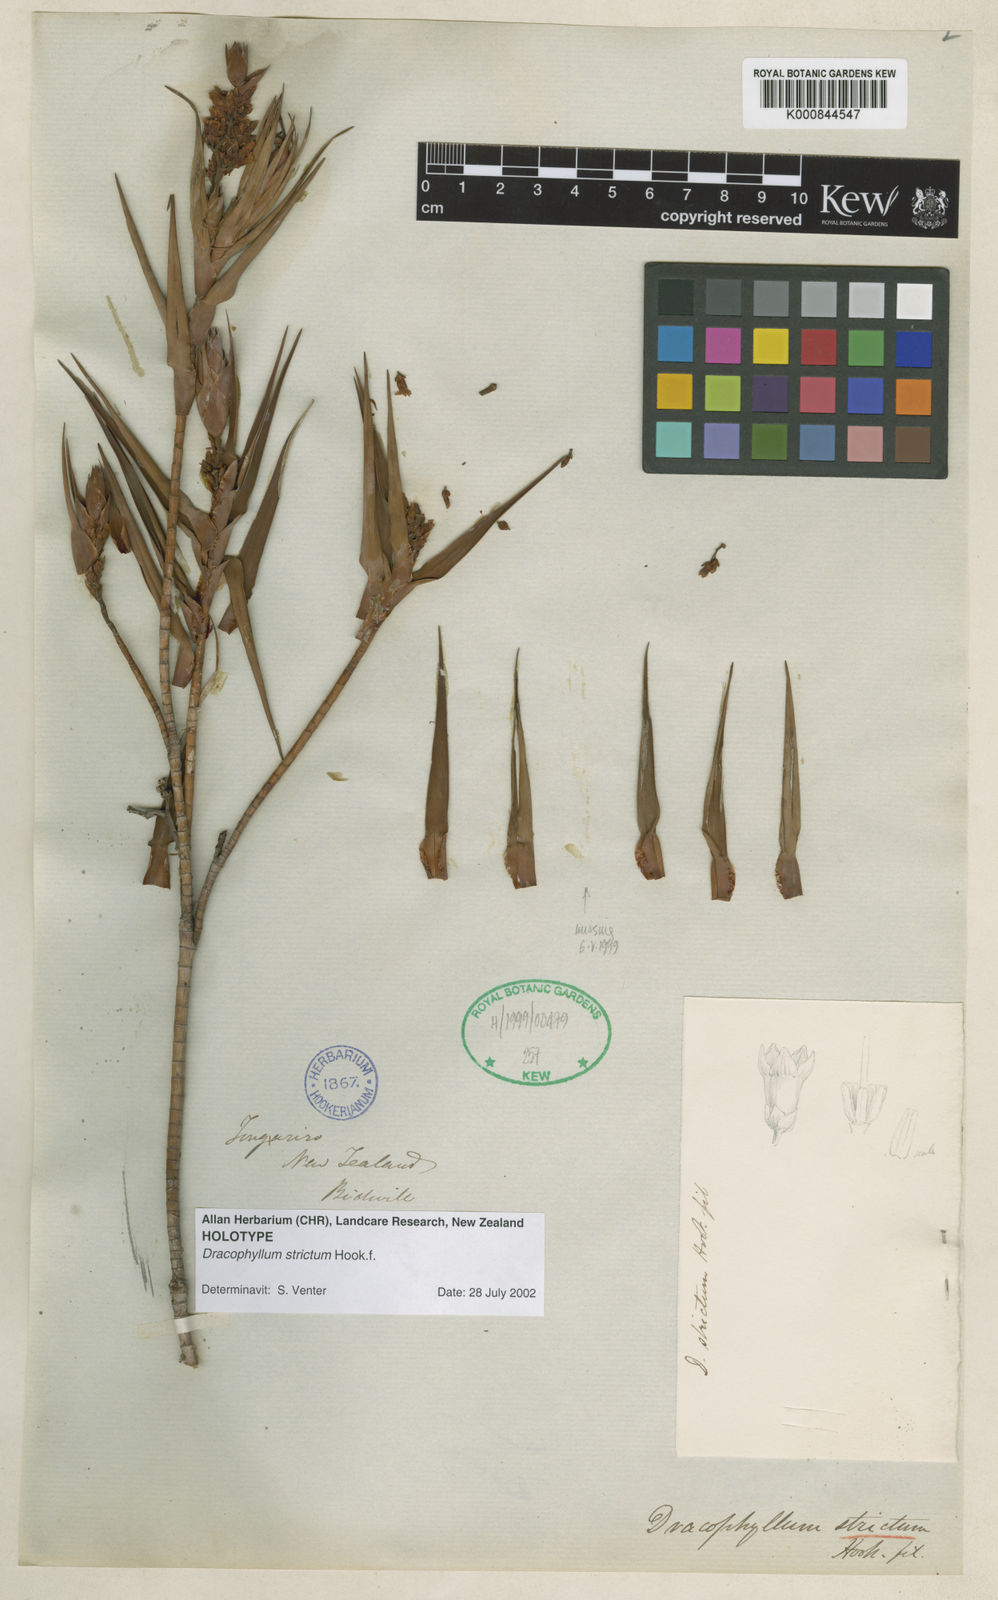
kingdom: Plantae
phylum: Tracheophyta
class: Magnoliopsida
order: Ericales
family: Ericaceae
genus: Dracophyllum
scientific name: Dracophyllum strictum
